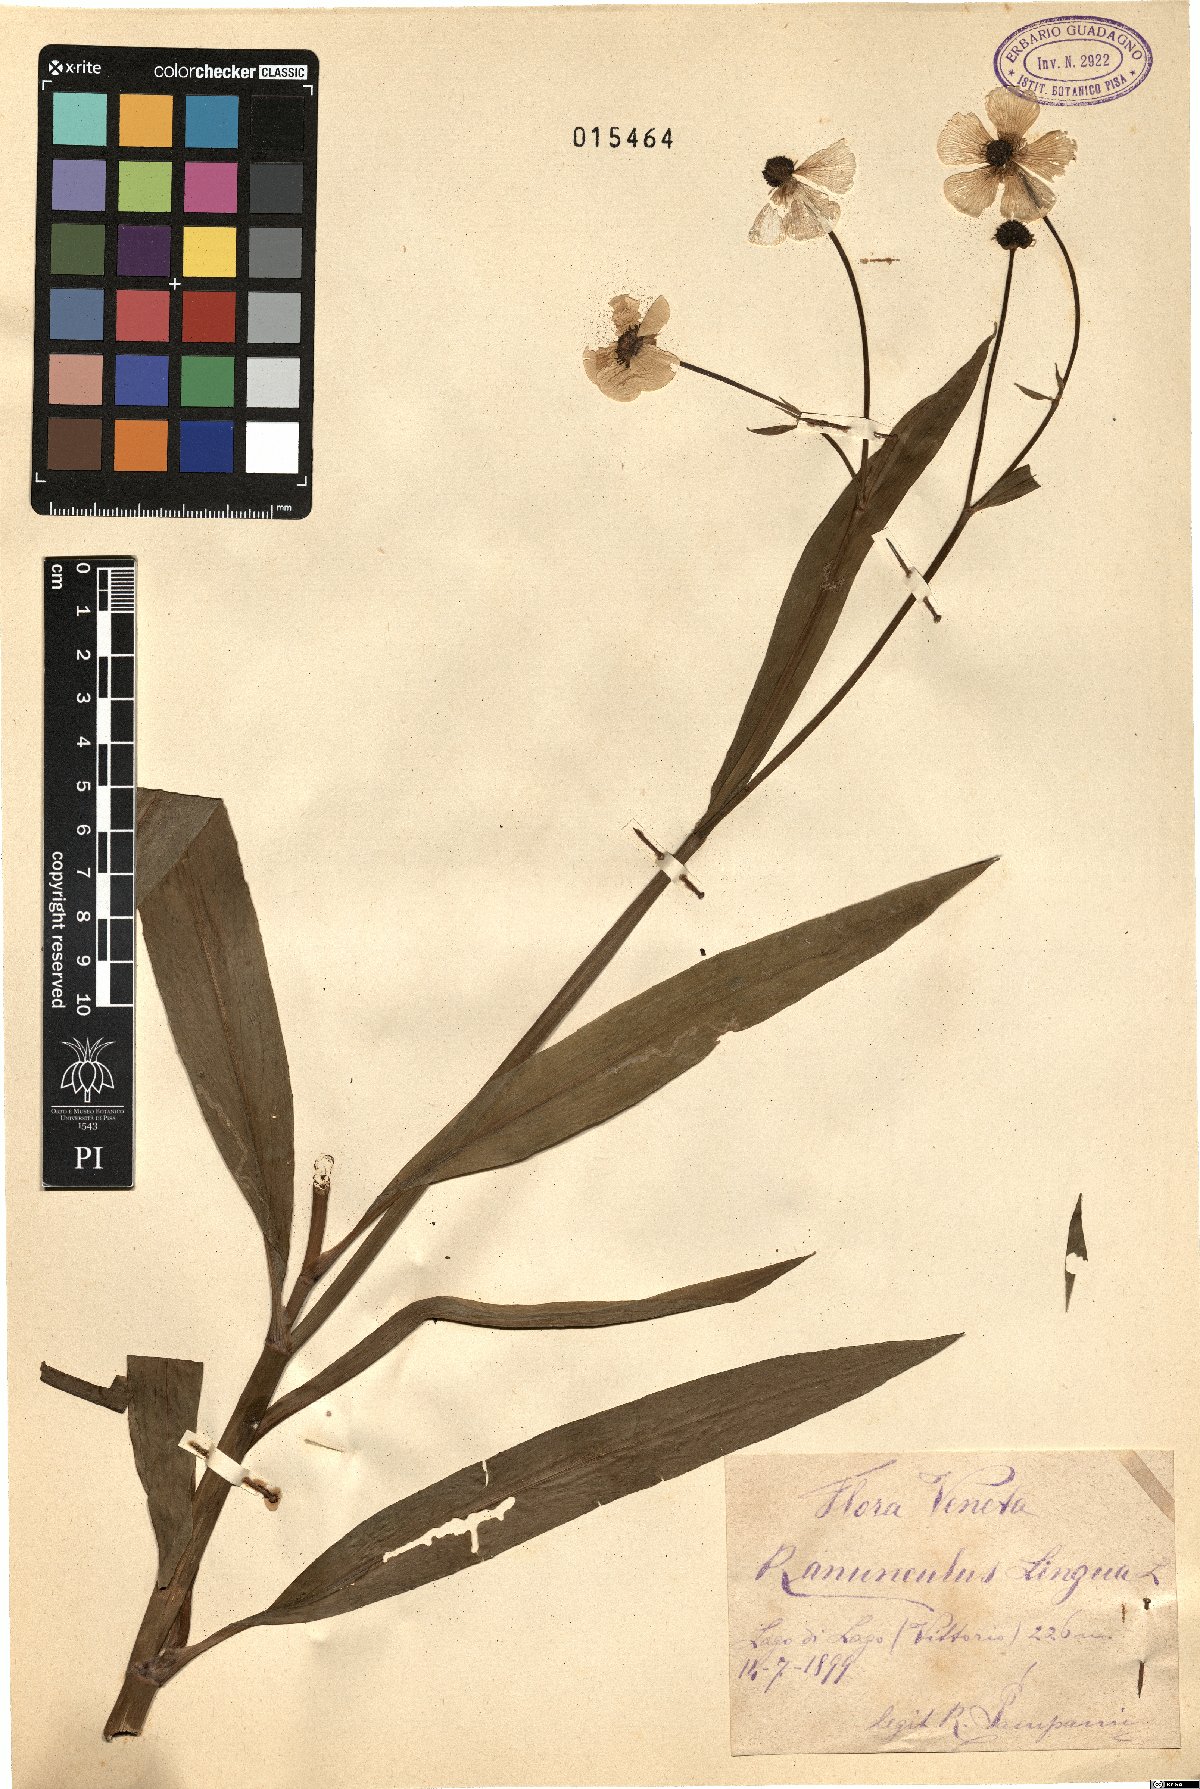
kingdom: Plantae
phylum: Tracheophyta
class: Magnoliopsida
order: Ranunculales
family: Ranunculaceae
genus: Ranunculus
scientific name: Ranunculus lingua
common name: Greater spearwort
